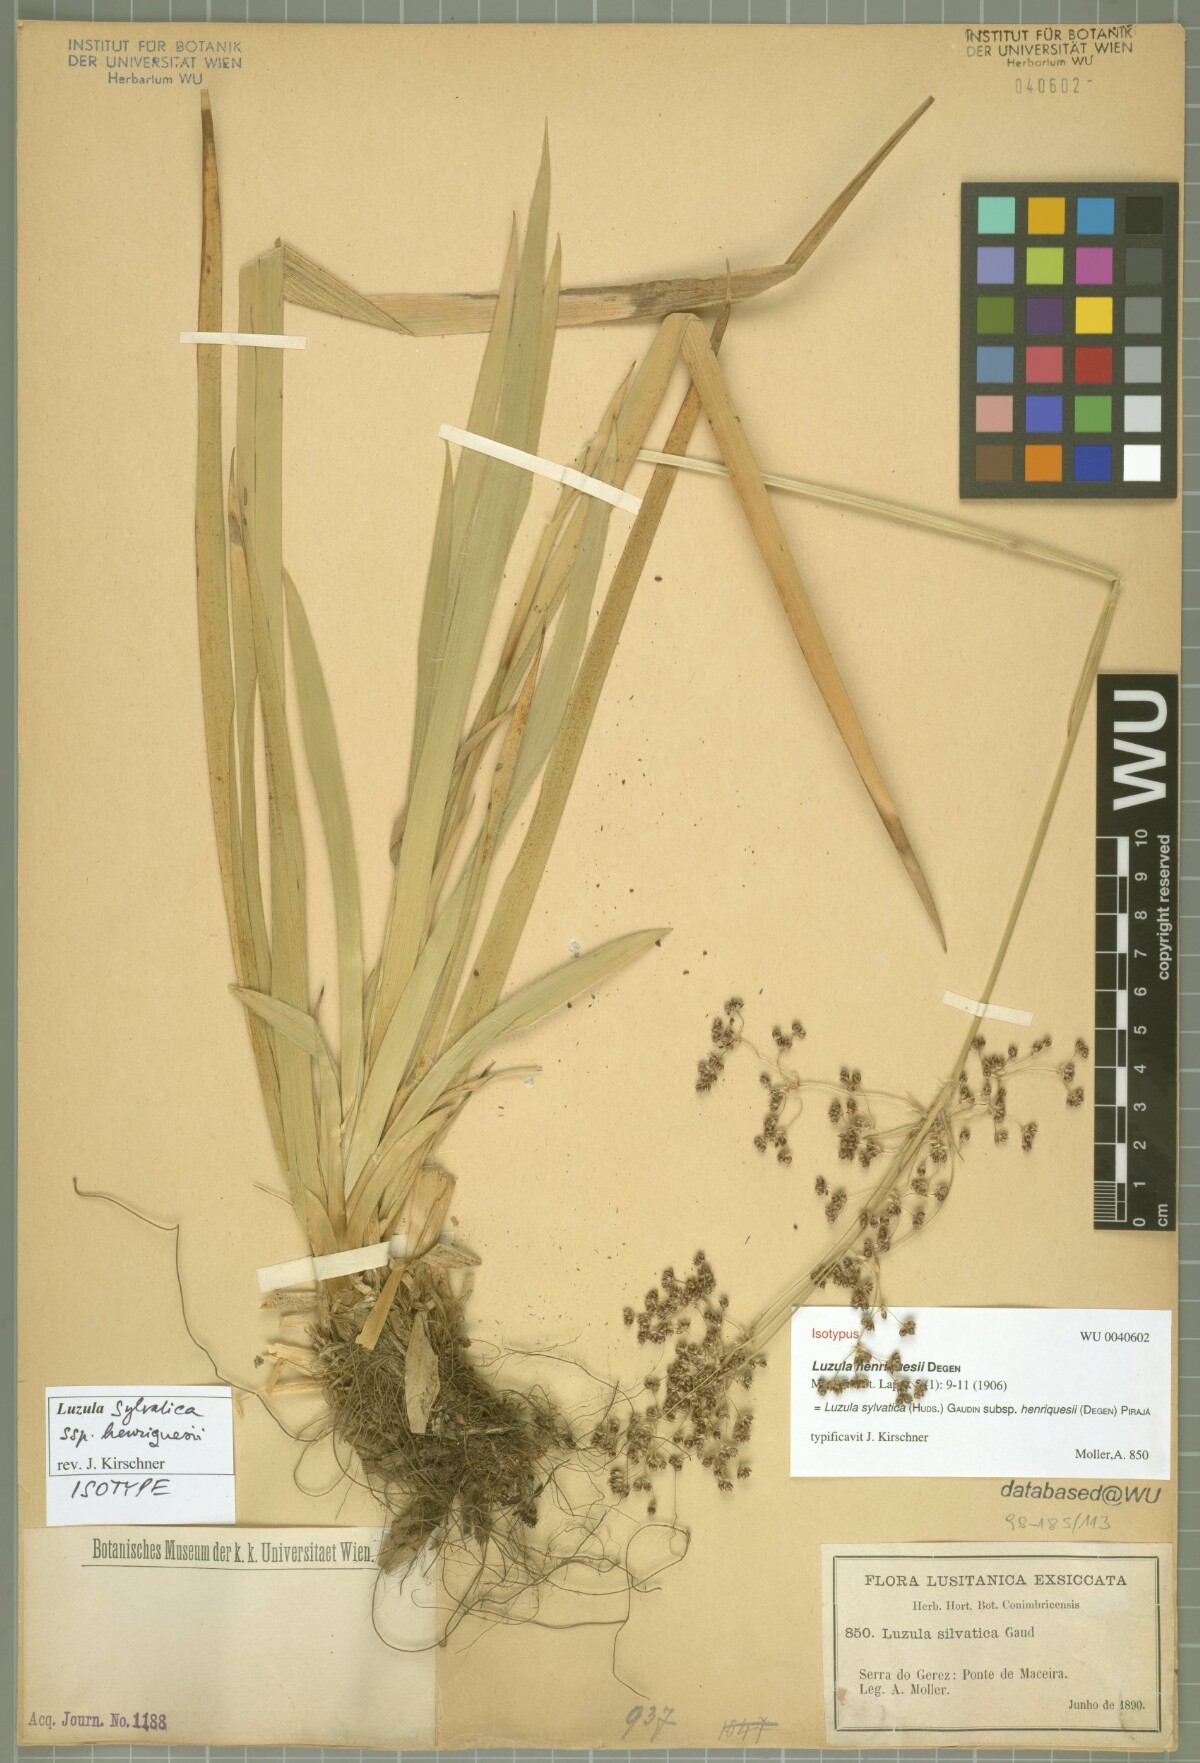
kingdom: Plantae
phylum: Tracheophyta
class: Liliopsida
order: Poales
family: Juncaceae
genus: Luzula
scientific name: Luzula sylvatica
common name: Great wood-rush
